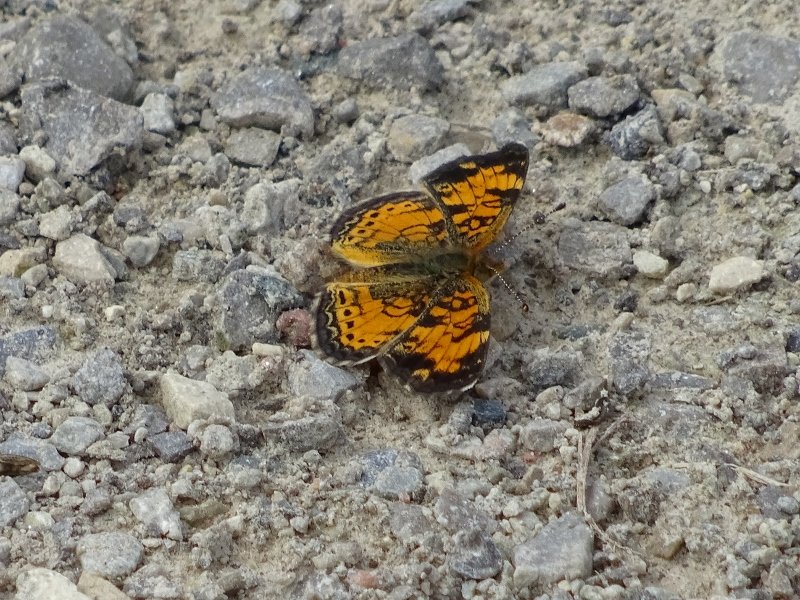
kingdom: Animalia
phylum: Arthropoda
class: Insecta
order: Lepidoptera
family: Nymphalidae
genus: Phyciodes
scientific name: Phyciodes tharos
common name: Pearl Crescent
